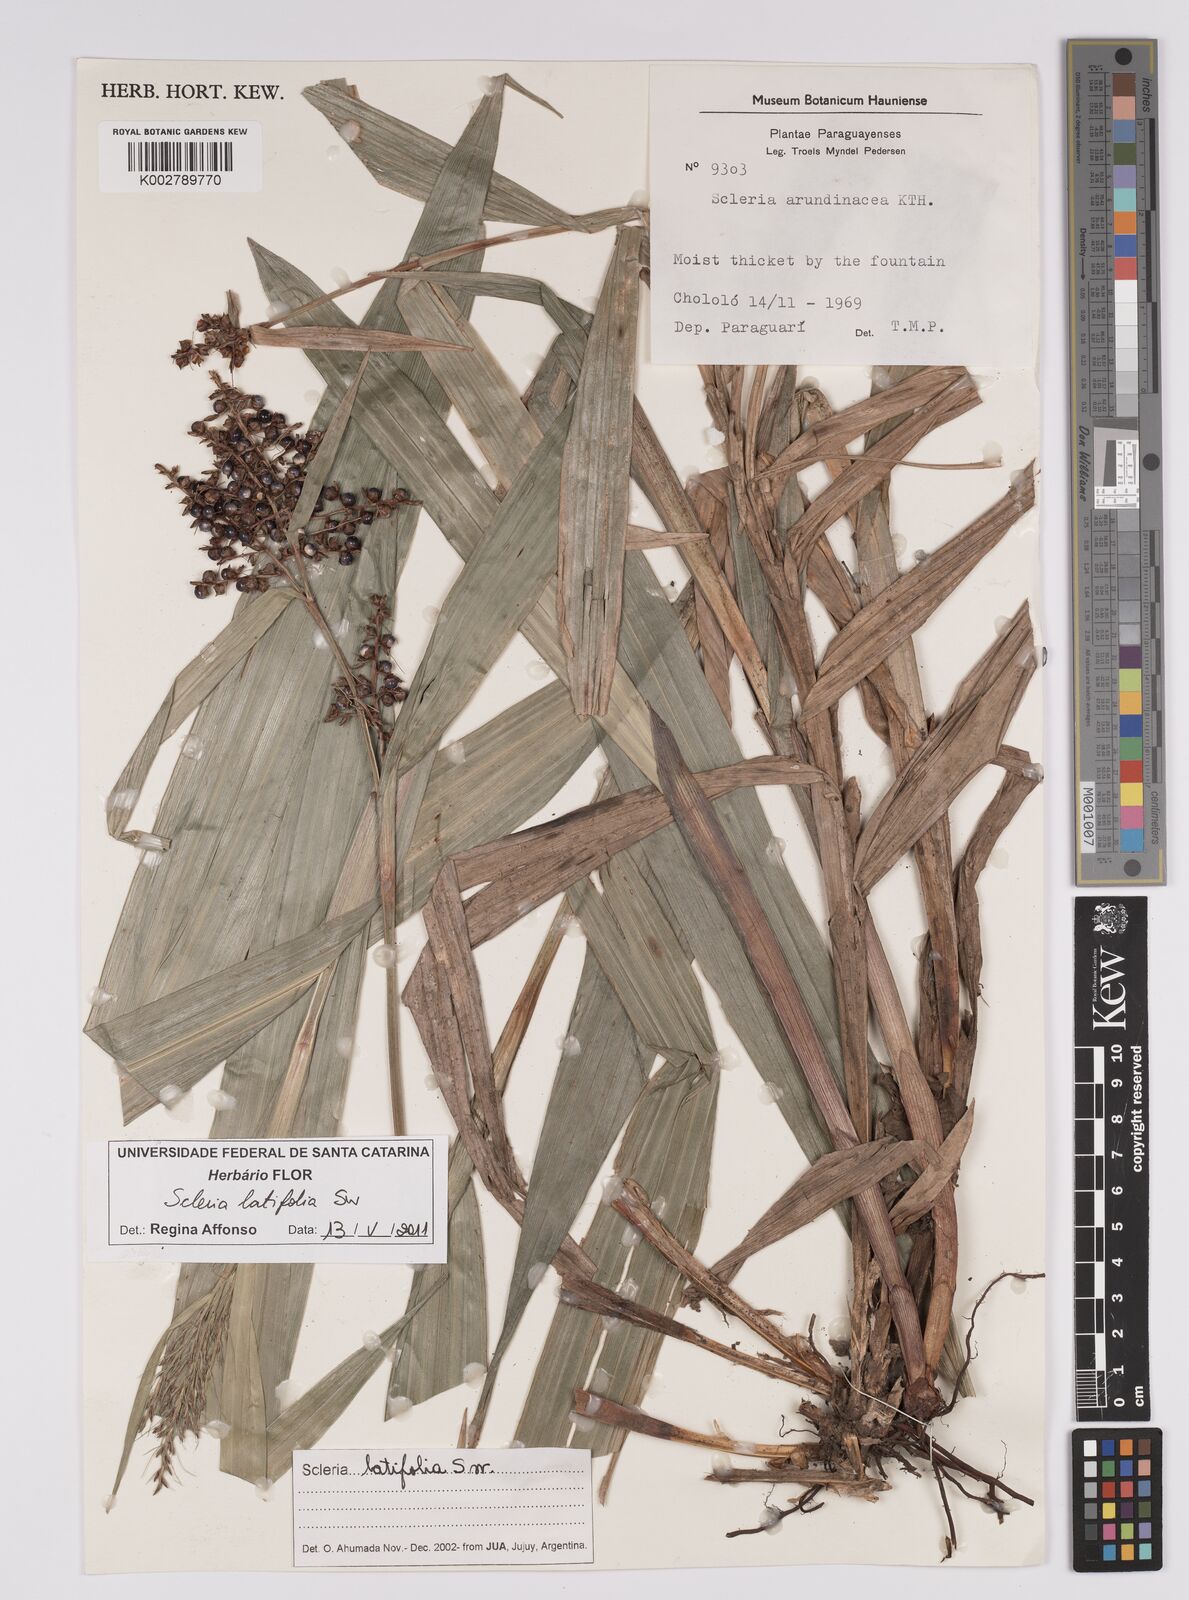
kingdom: Plantae
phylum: Tracheophyta
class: Liliopsida
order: Poales
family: Cyperaceae
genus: Scleria
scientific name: Scleria latifolia
